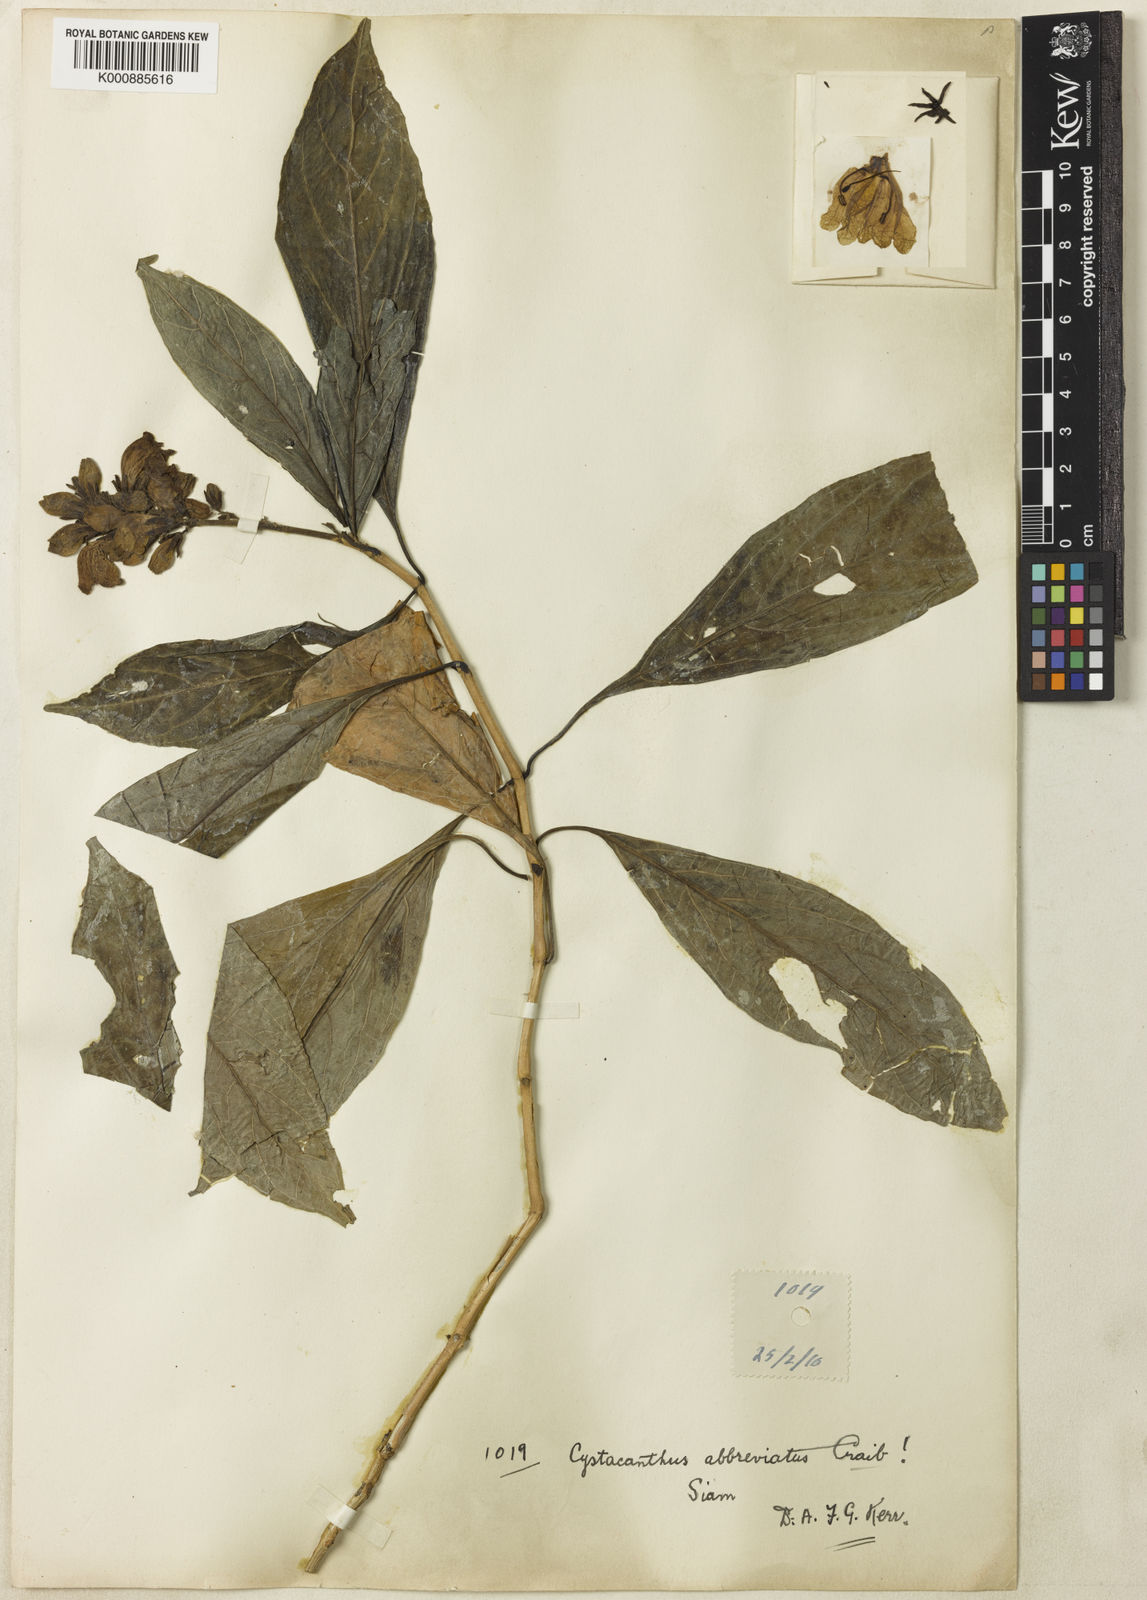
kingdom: Plantae
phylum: Tracheophyta
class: Magnoliopsida
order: Lamiales
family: Acanthaceae
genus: Phlogacanthus
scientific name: Phlogacanthus abbreviatus
